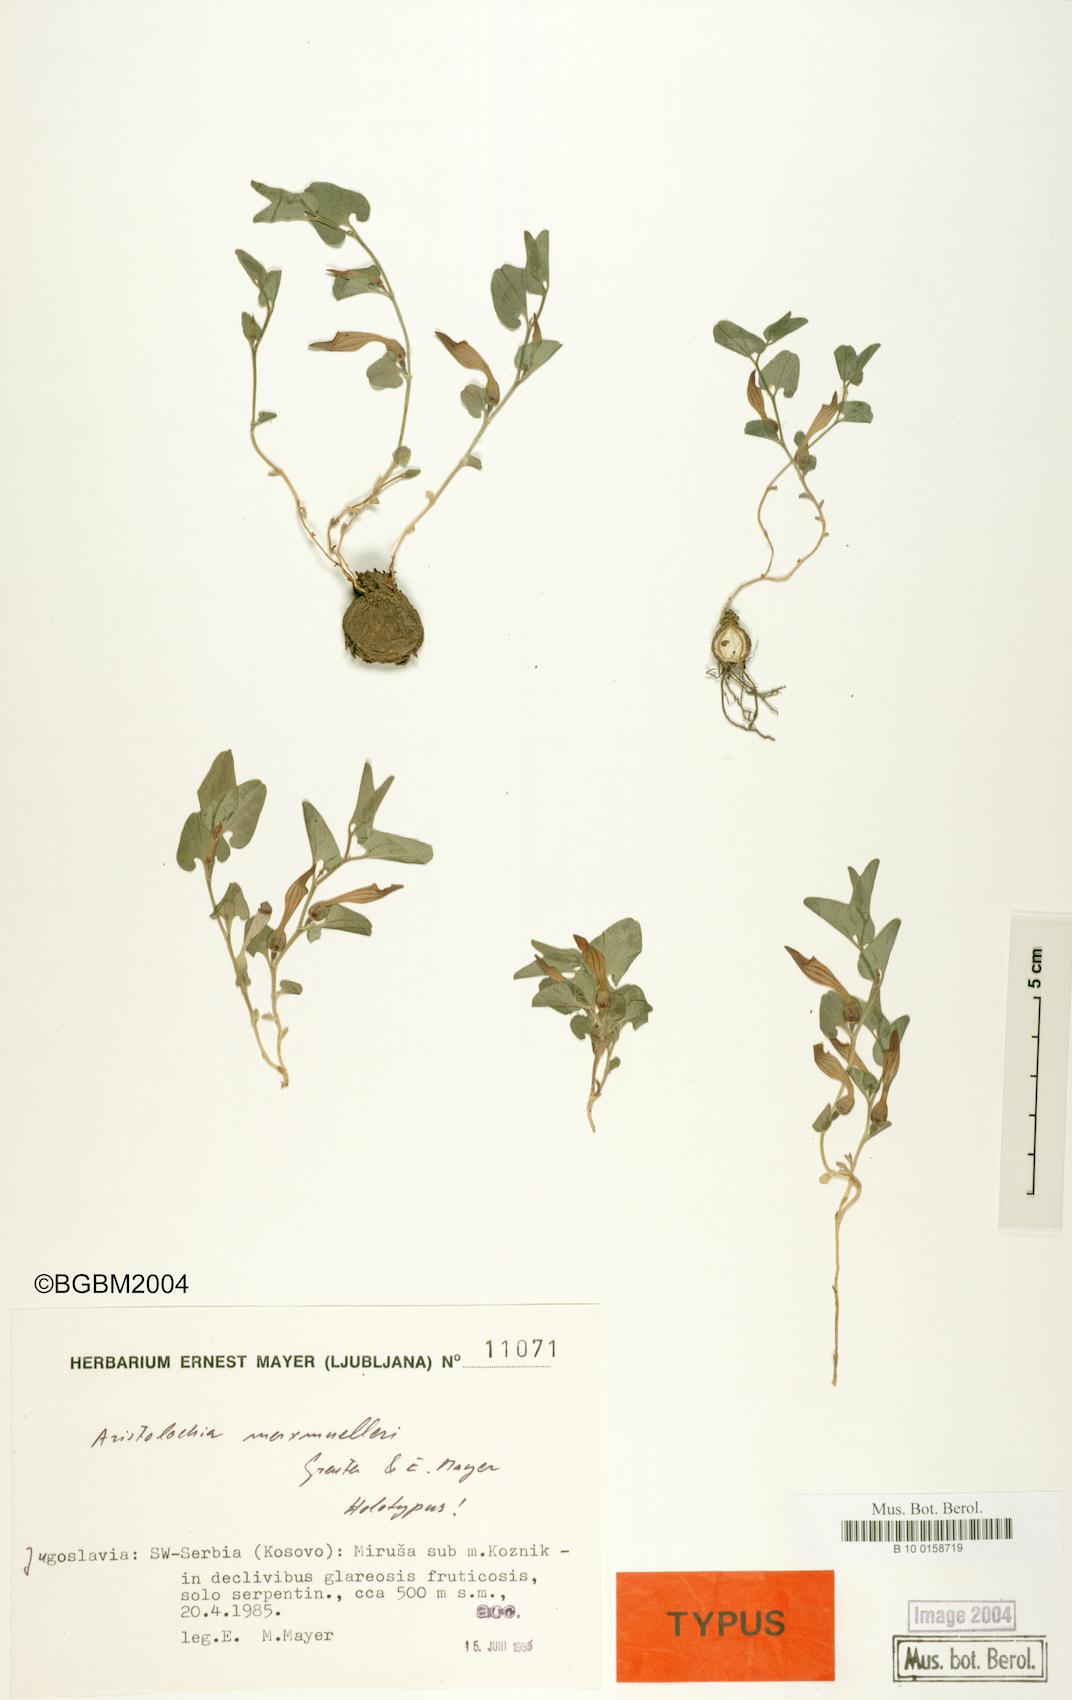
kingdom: Plantae
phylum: Tracheophyta
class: Magnoliopsida
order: Piperales
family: Aristolochiaceae
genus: Aristolochia
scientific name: Aristolochia merxmuelleri
